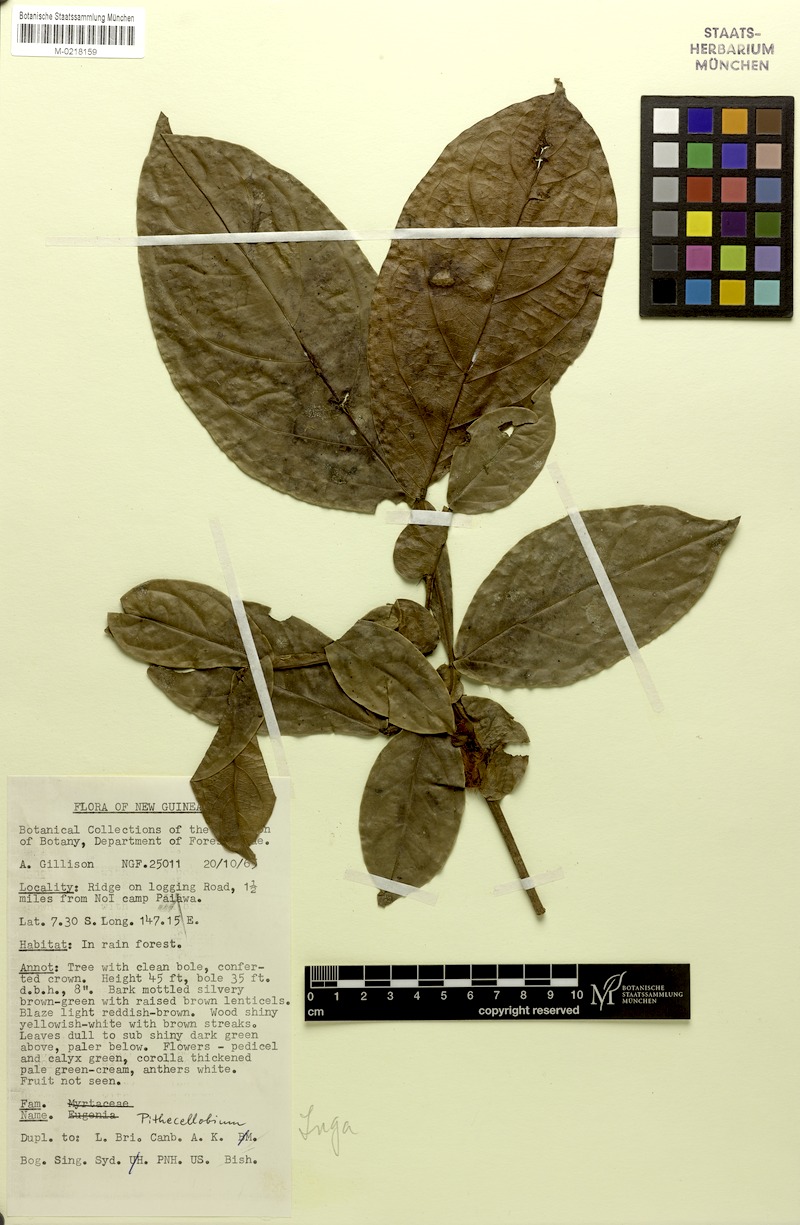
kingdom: Plantae
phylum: Tracheophyta
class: Magnoliopsida
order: Fabales
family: Fabaceae
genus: Archidendron
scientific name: Archidendron ptenopum
